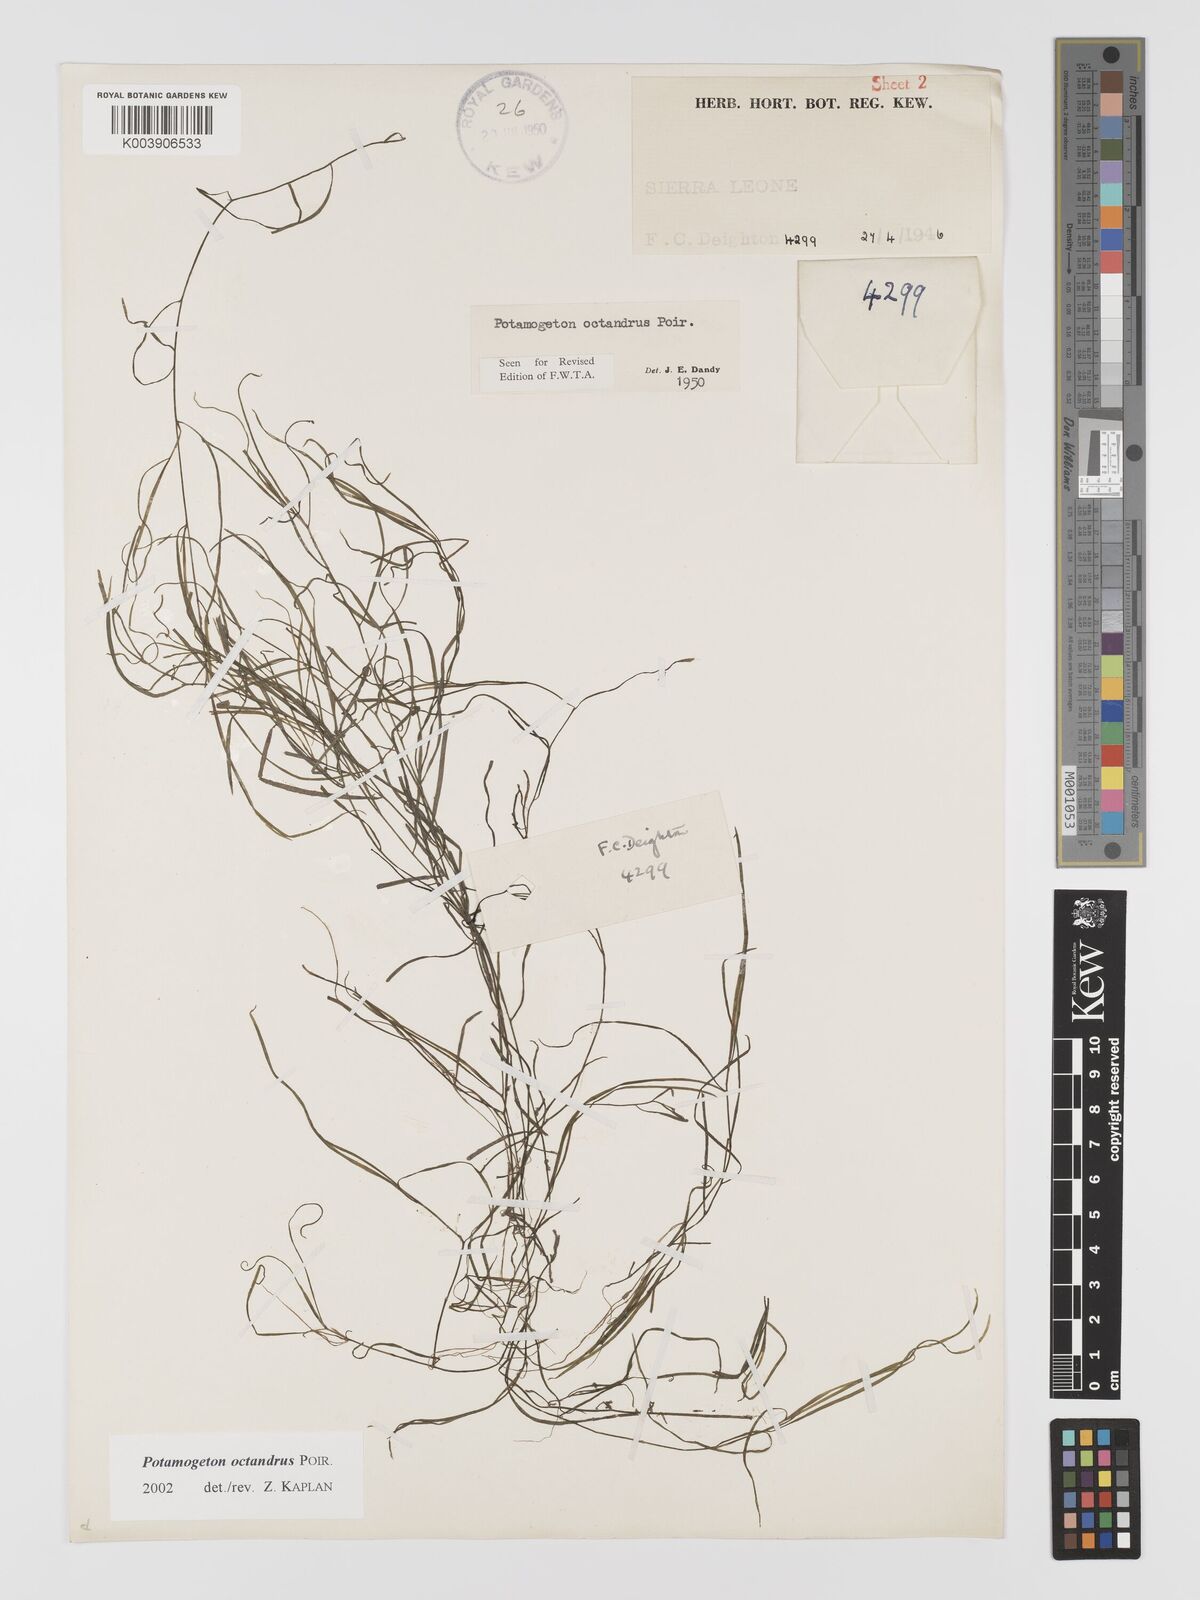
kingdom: Plantae
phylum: Tracheophyta
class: Liliopsida
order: Alismatales
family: Potamogetonaceae
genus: Potamogeton
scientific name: Potamogeton octandrus
